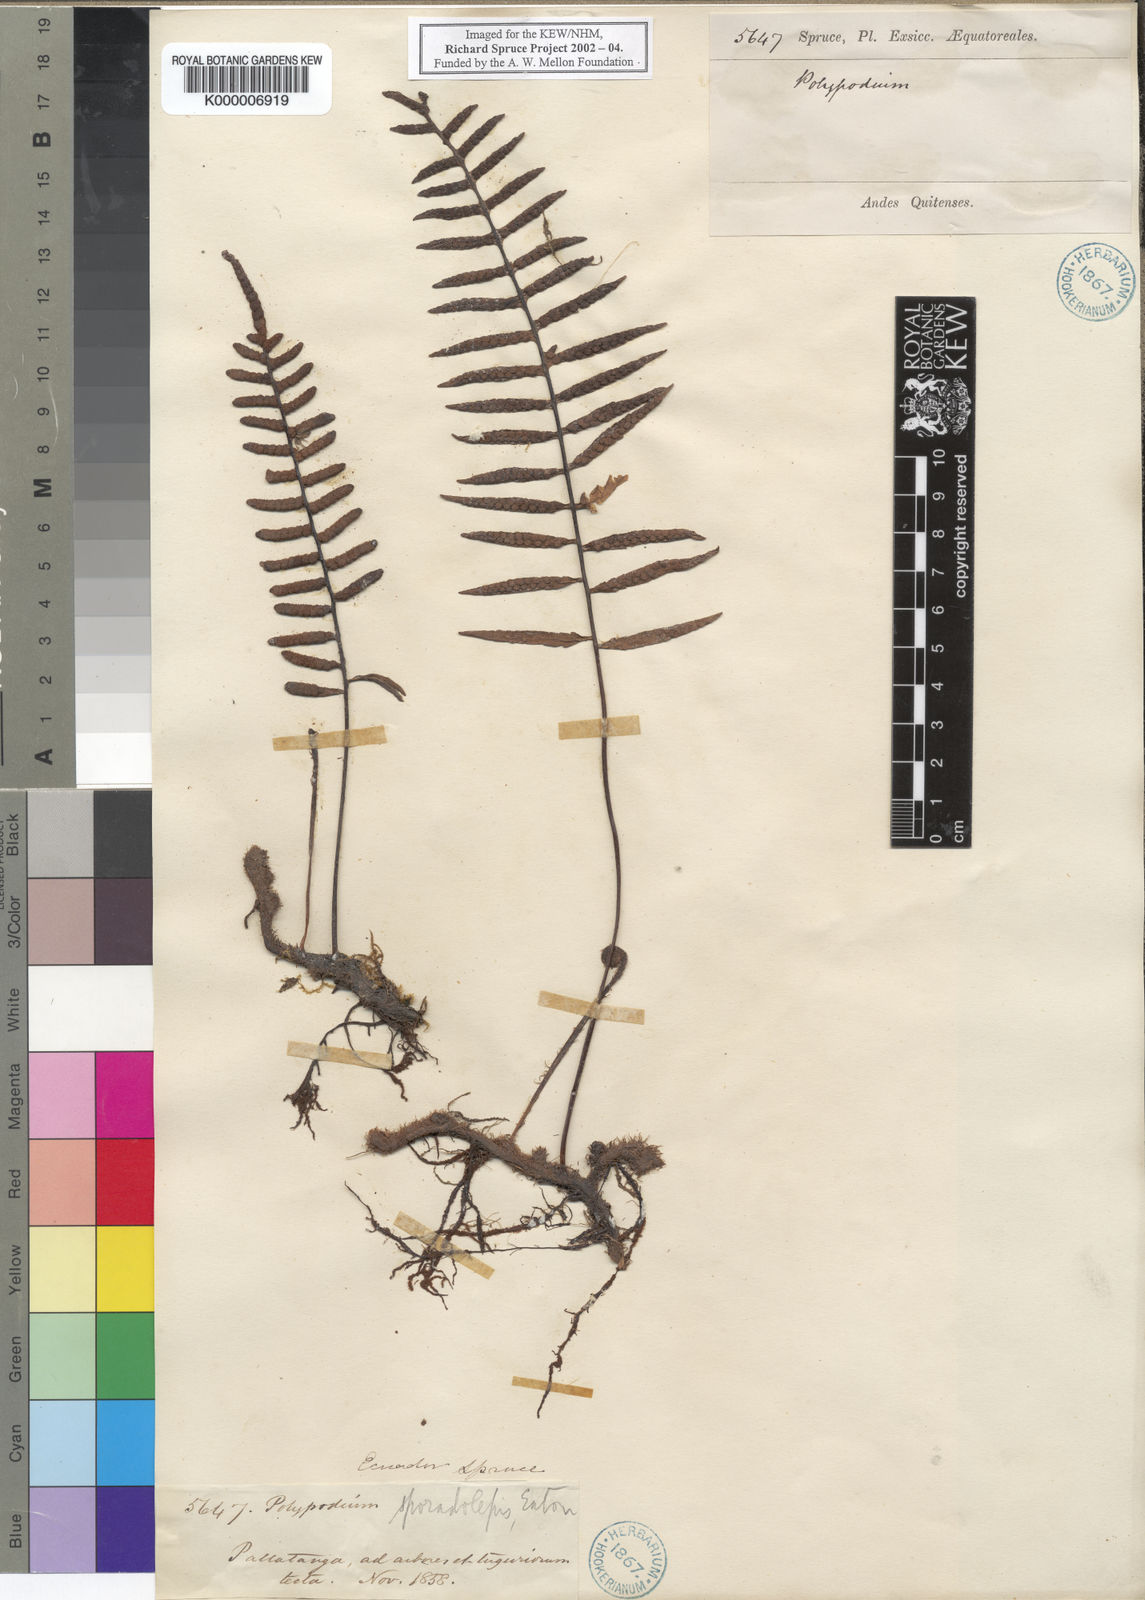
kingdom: Plantae
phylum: Tracheophyta
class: Polypodiopsida
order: Polypodiales
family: Polypodiaceae
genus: Polypodium
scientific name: Polypodium
